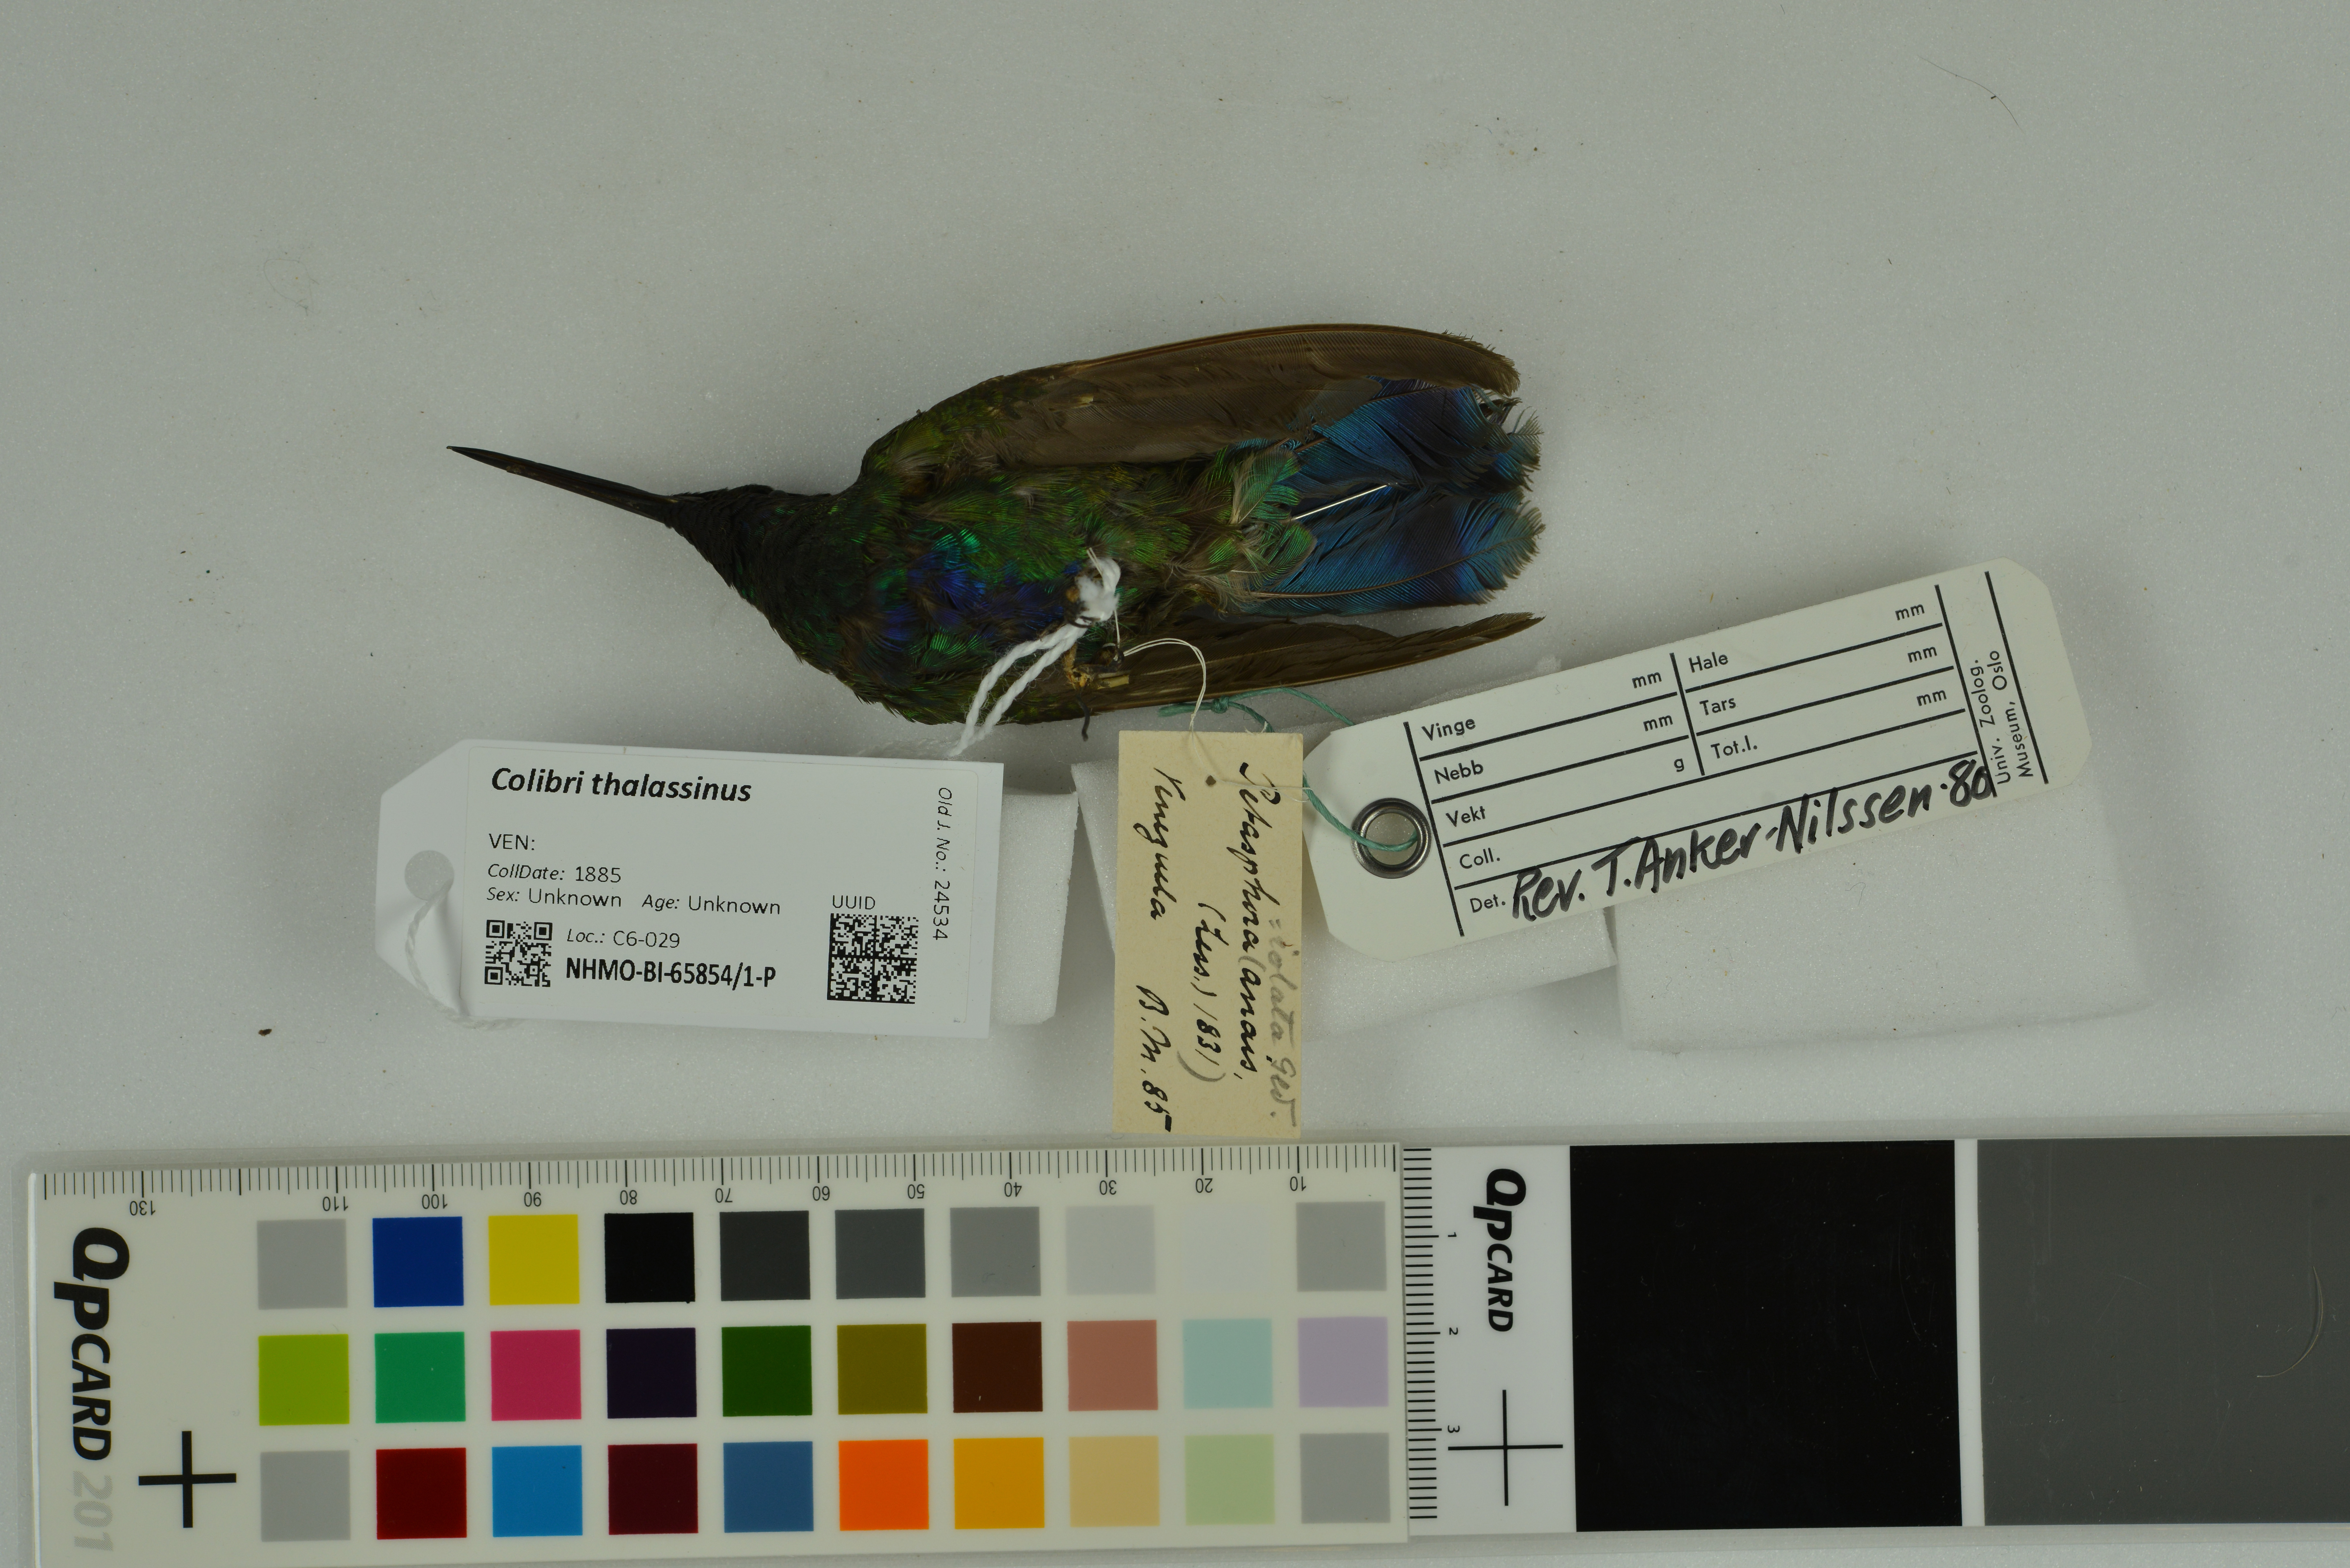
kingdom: Animalia
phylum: Chordata
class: Aves
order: Apodiformes
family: Trochilidae
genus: Colibri
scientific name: Colibri thalassinus
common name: Green violetear
